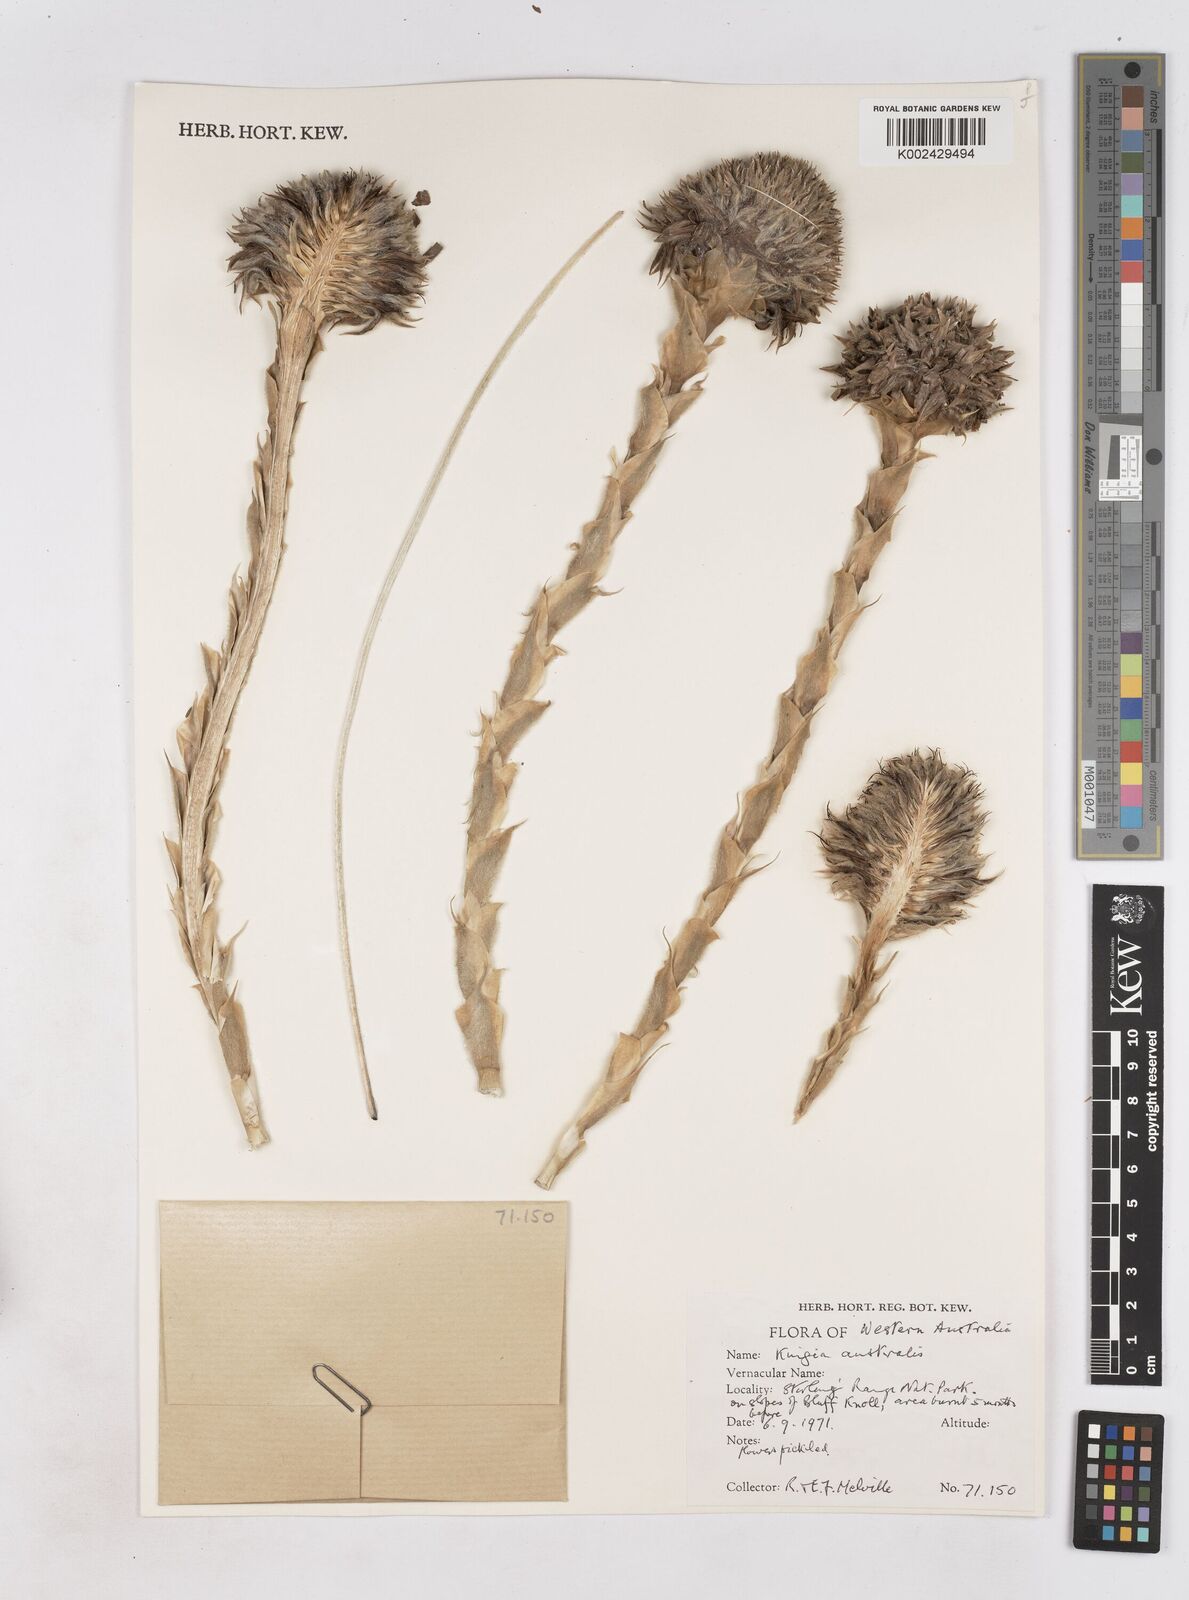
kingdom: Plantae
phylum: Tracheophyta
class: Liliopsida
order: Arecales
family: Dasypogonaceae
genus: Kingia
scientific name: Kingia australis
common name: Black gin
